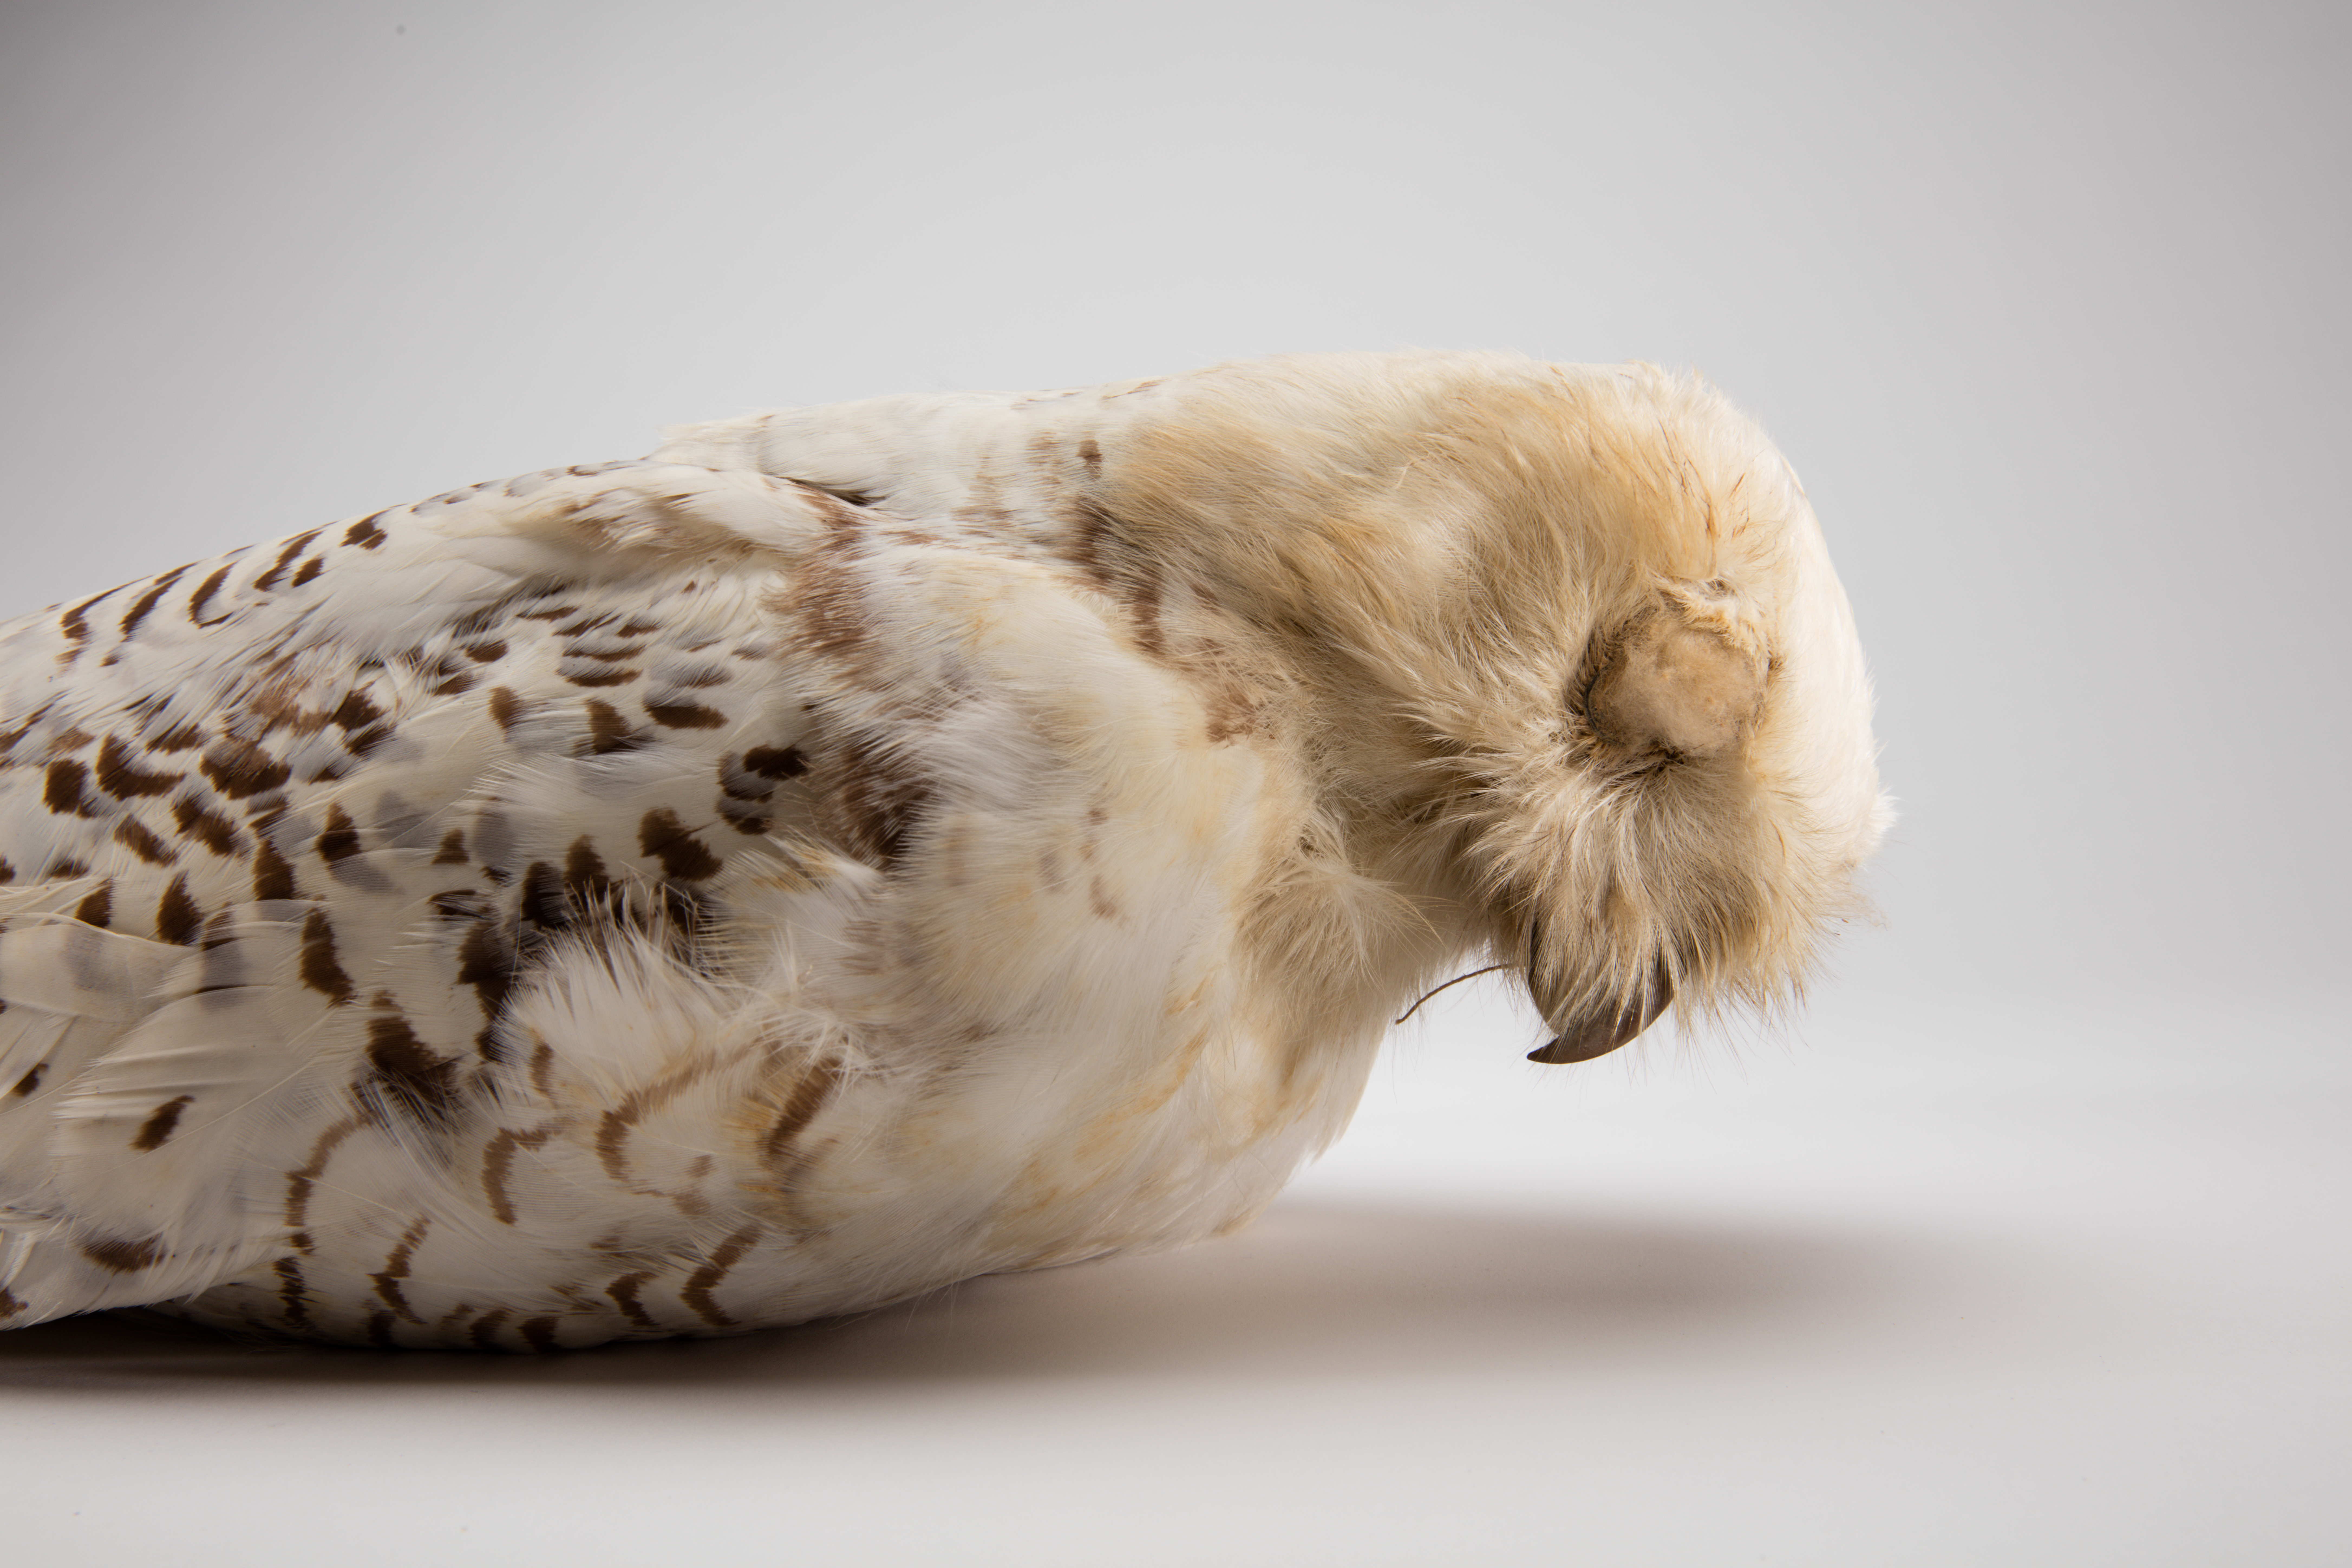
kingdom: Animalia
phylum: Chordata
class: Aves
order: Strigiformes
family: Strigidae
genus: Bubo
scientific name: Bubo scandiacus
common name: Snowy owl
